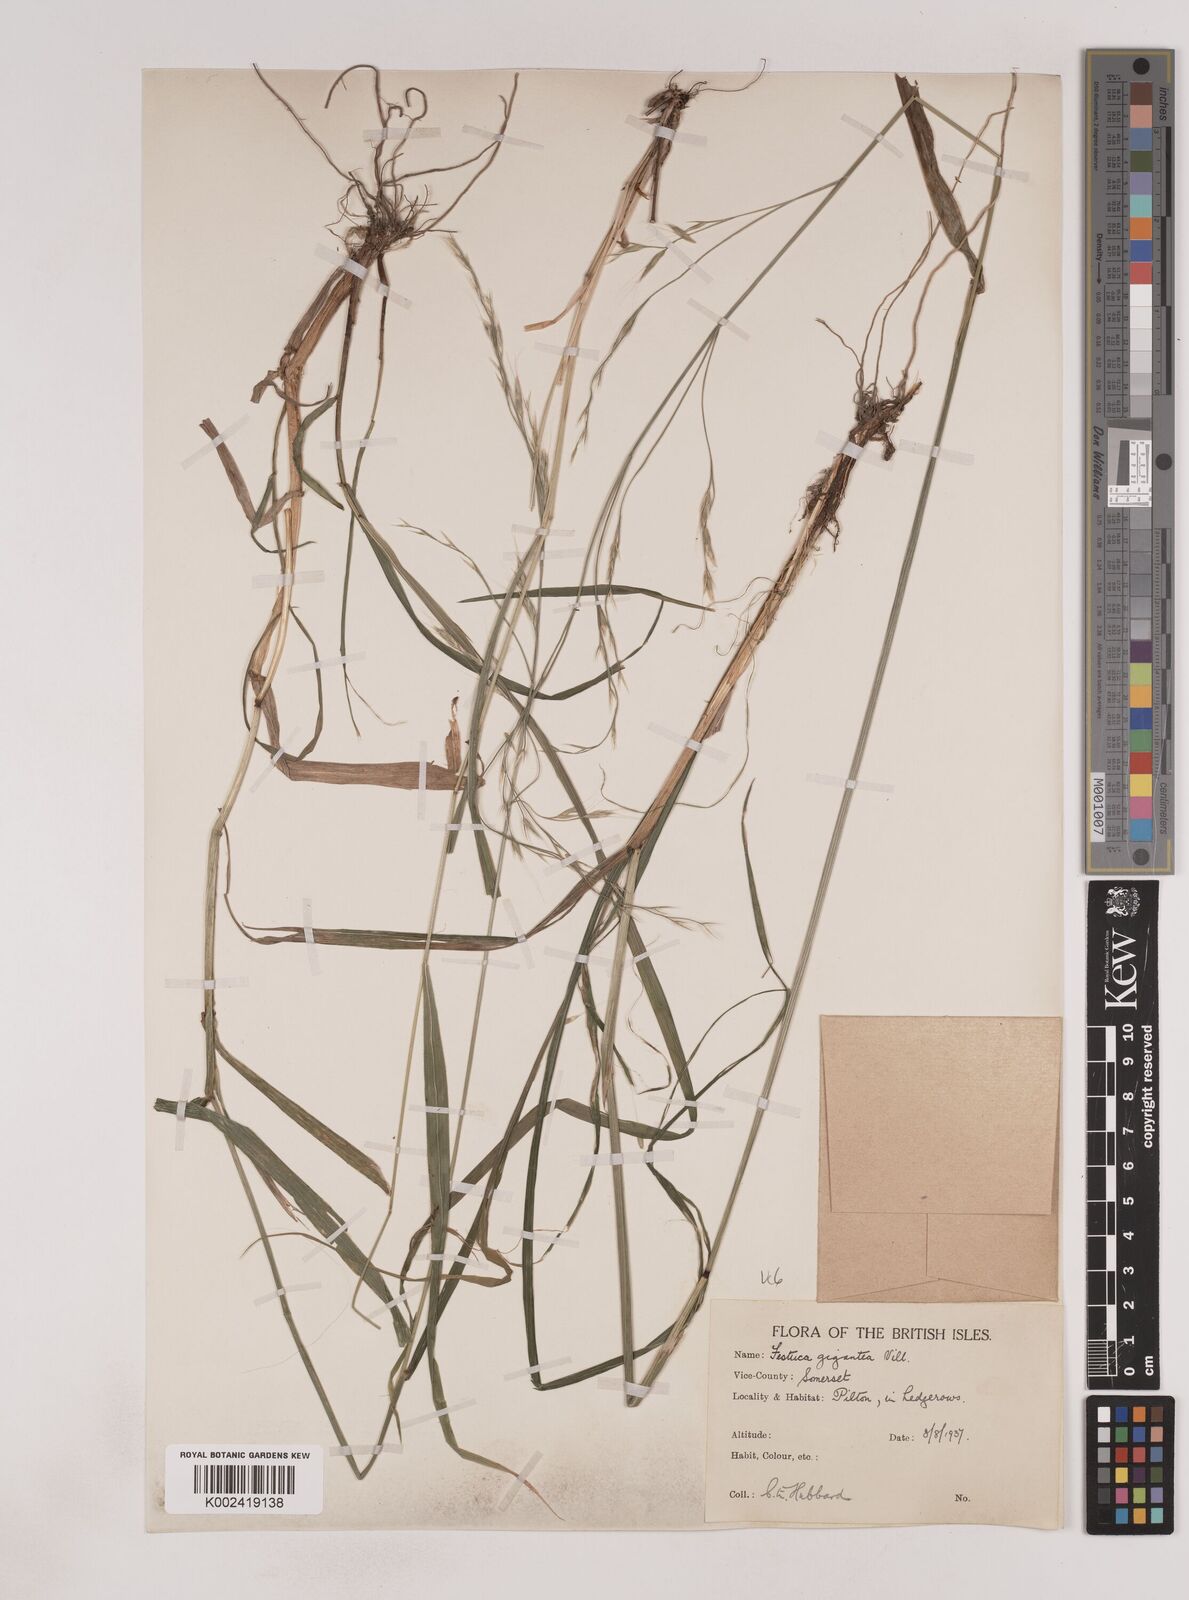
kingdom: Plantae
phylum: Tracheophyta
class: Liliopsida
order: Poales
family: Poaceae
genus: Lolium
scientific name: Lolium giganteum
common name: Giant fescue
